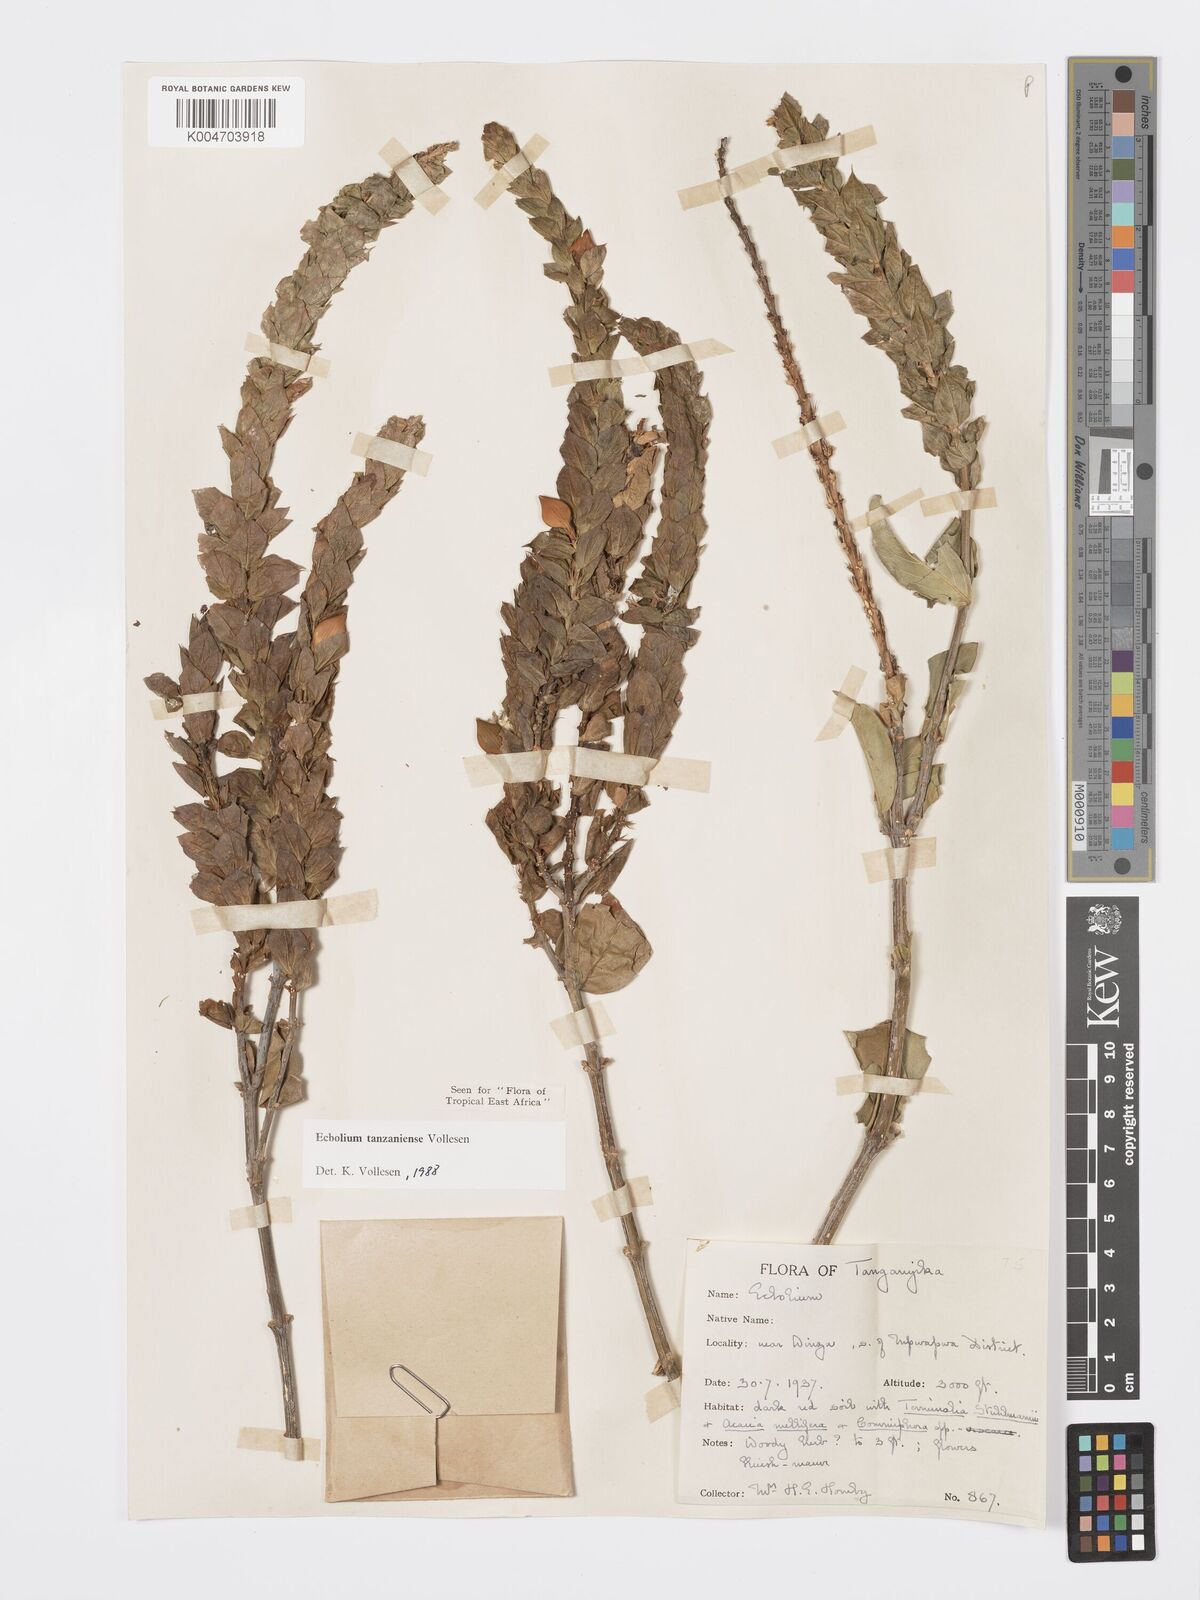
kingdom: Plantae
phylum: Tracheophyta
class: Magnoliopsida
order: Lamiales
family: Acanthaceae
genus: Ecbolium
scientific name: Ecbolium tanzaniense
